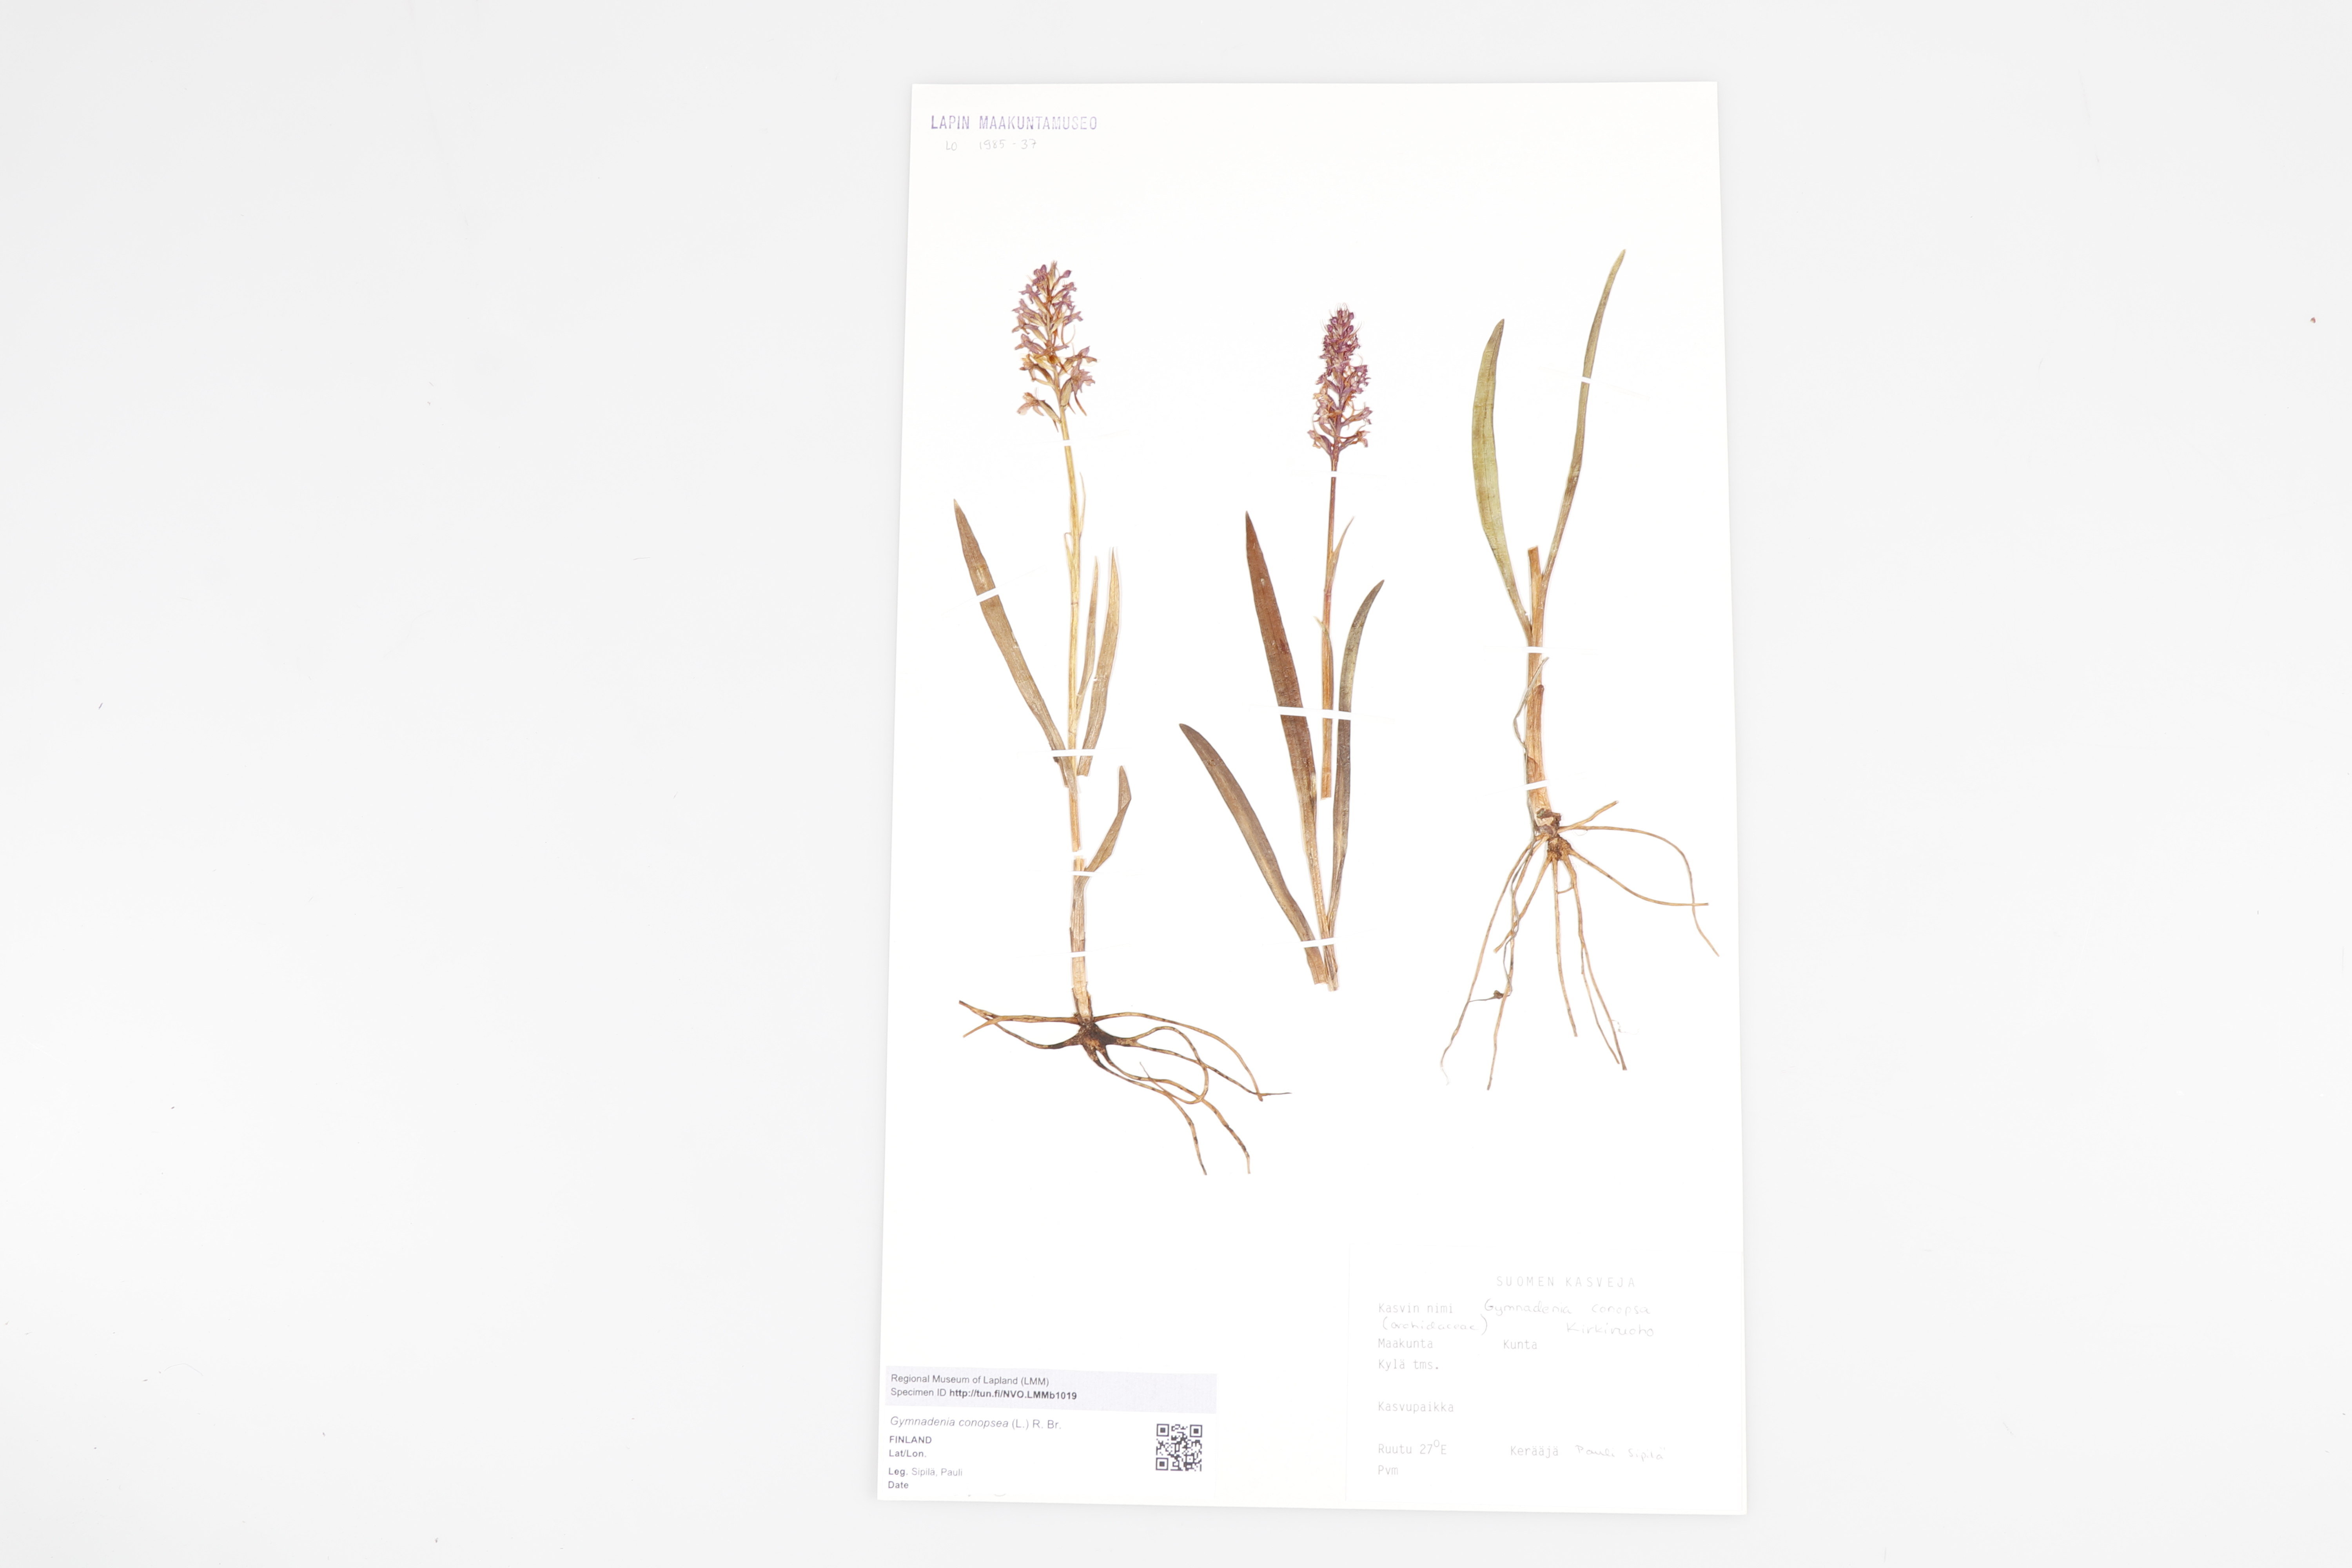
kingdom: Plantae
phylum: Tracheophyta
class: Liliopsida
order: Asparagales
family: Orchidaceae
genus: Gymnadenia
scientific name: Gymnadenia conopsea
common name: Fragrant orchid
